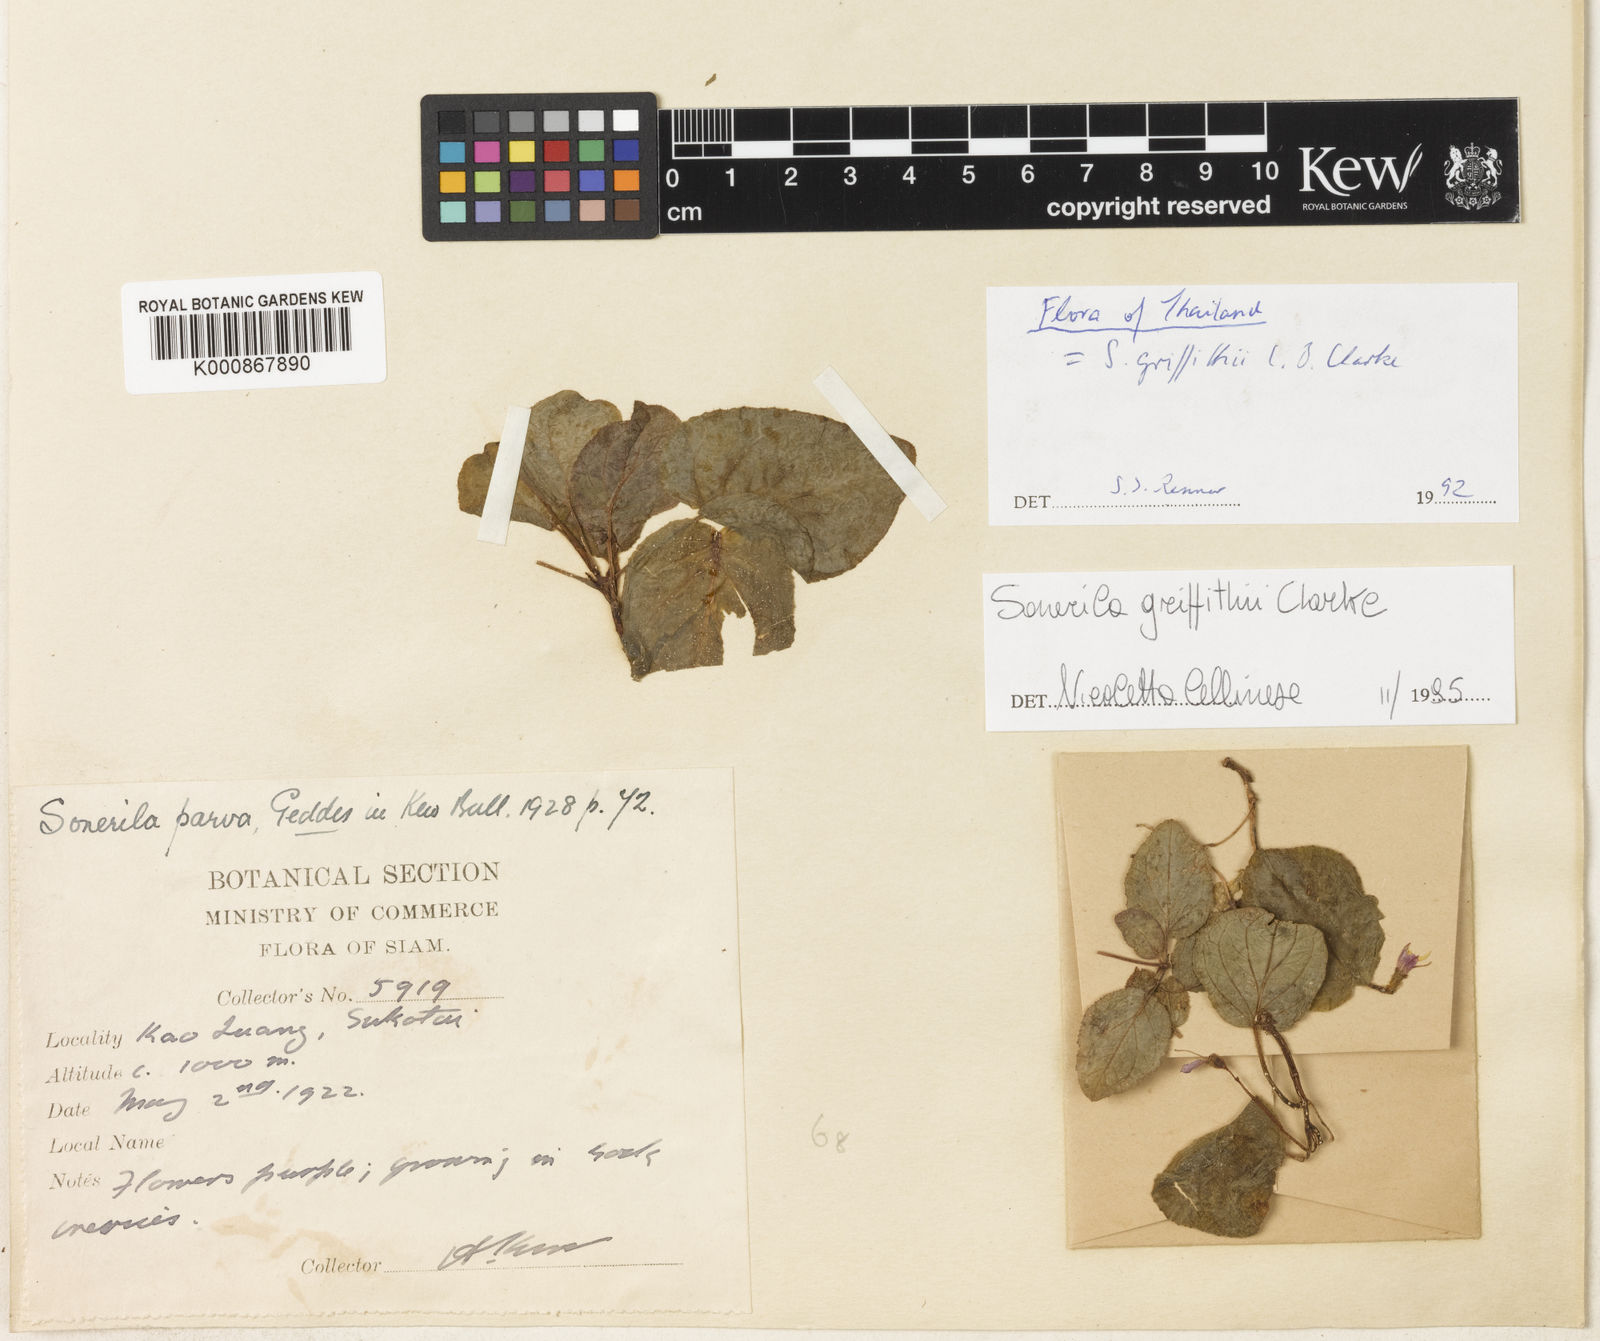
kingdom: Plantae
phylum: Tracheophyta
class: Magnoliopsida
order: Myrtales
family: Melastomataceae
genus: Sonerila
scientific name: Sonerila griffithii
